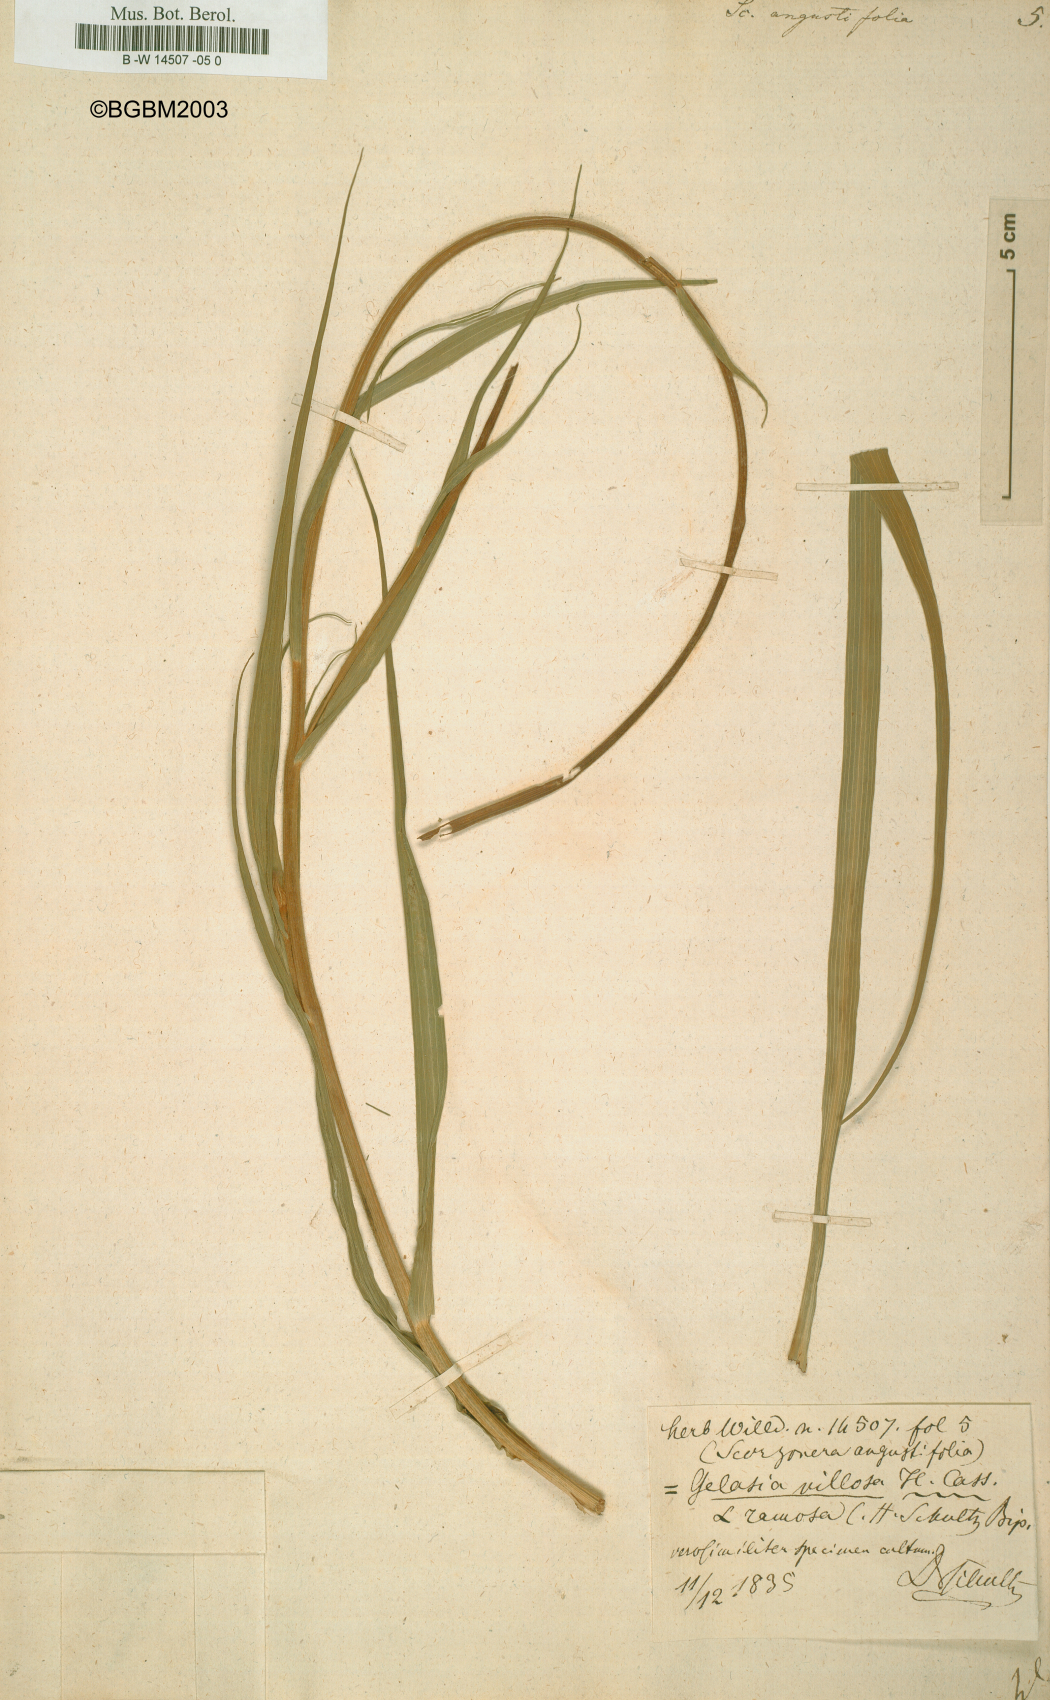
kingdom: Plantae
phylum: Tracheophyta
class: Magnoliopsida
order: Asterales
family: Asteraceae
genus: Scorzonera
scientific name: Scorzonera angustifolia
